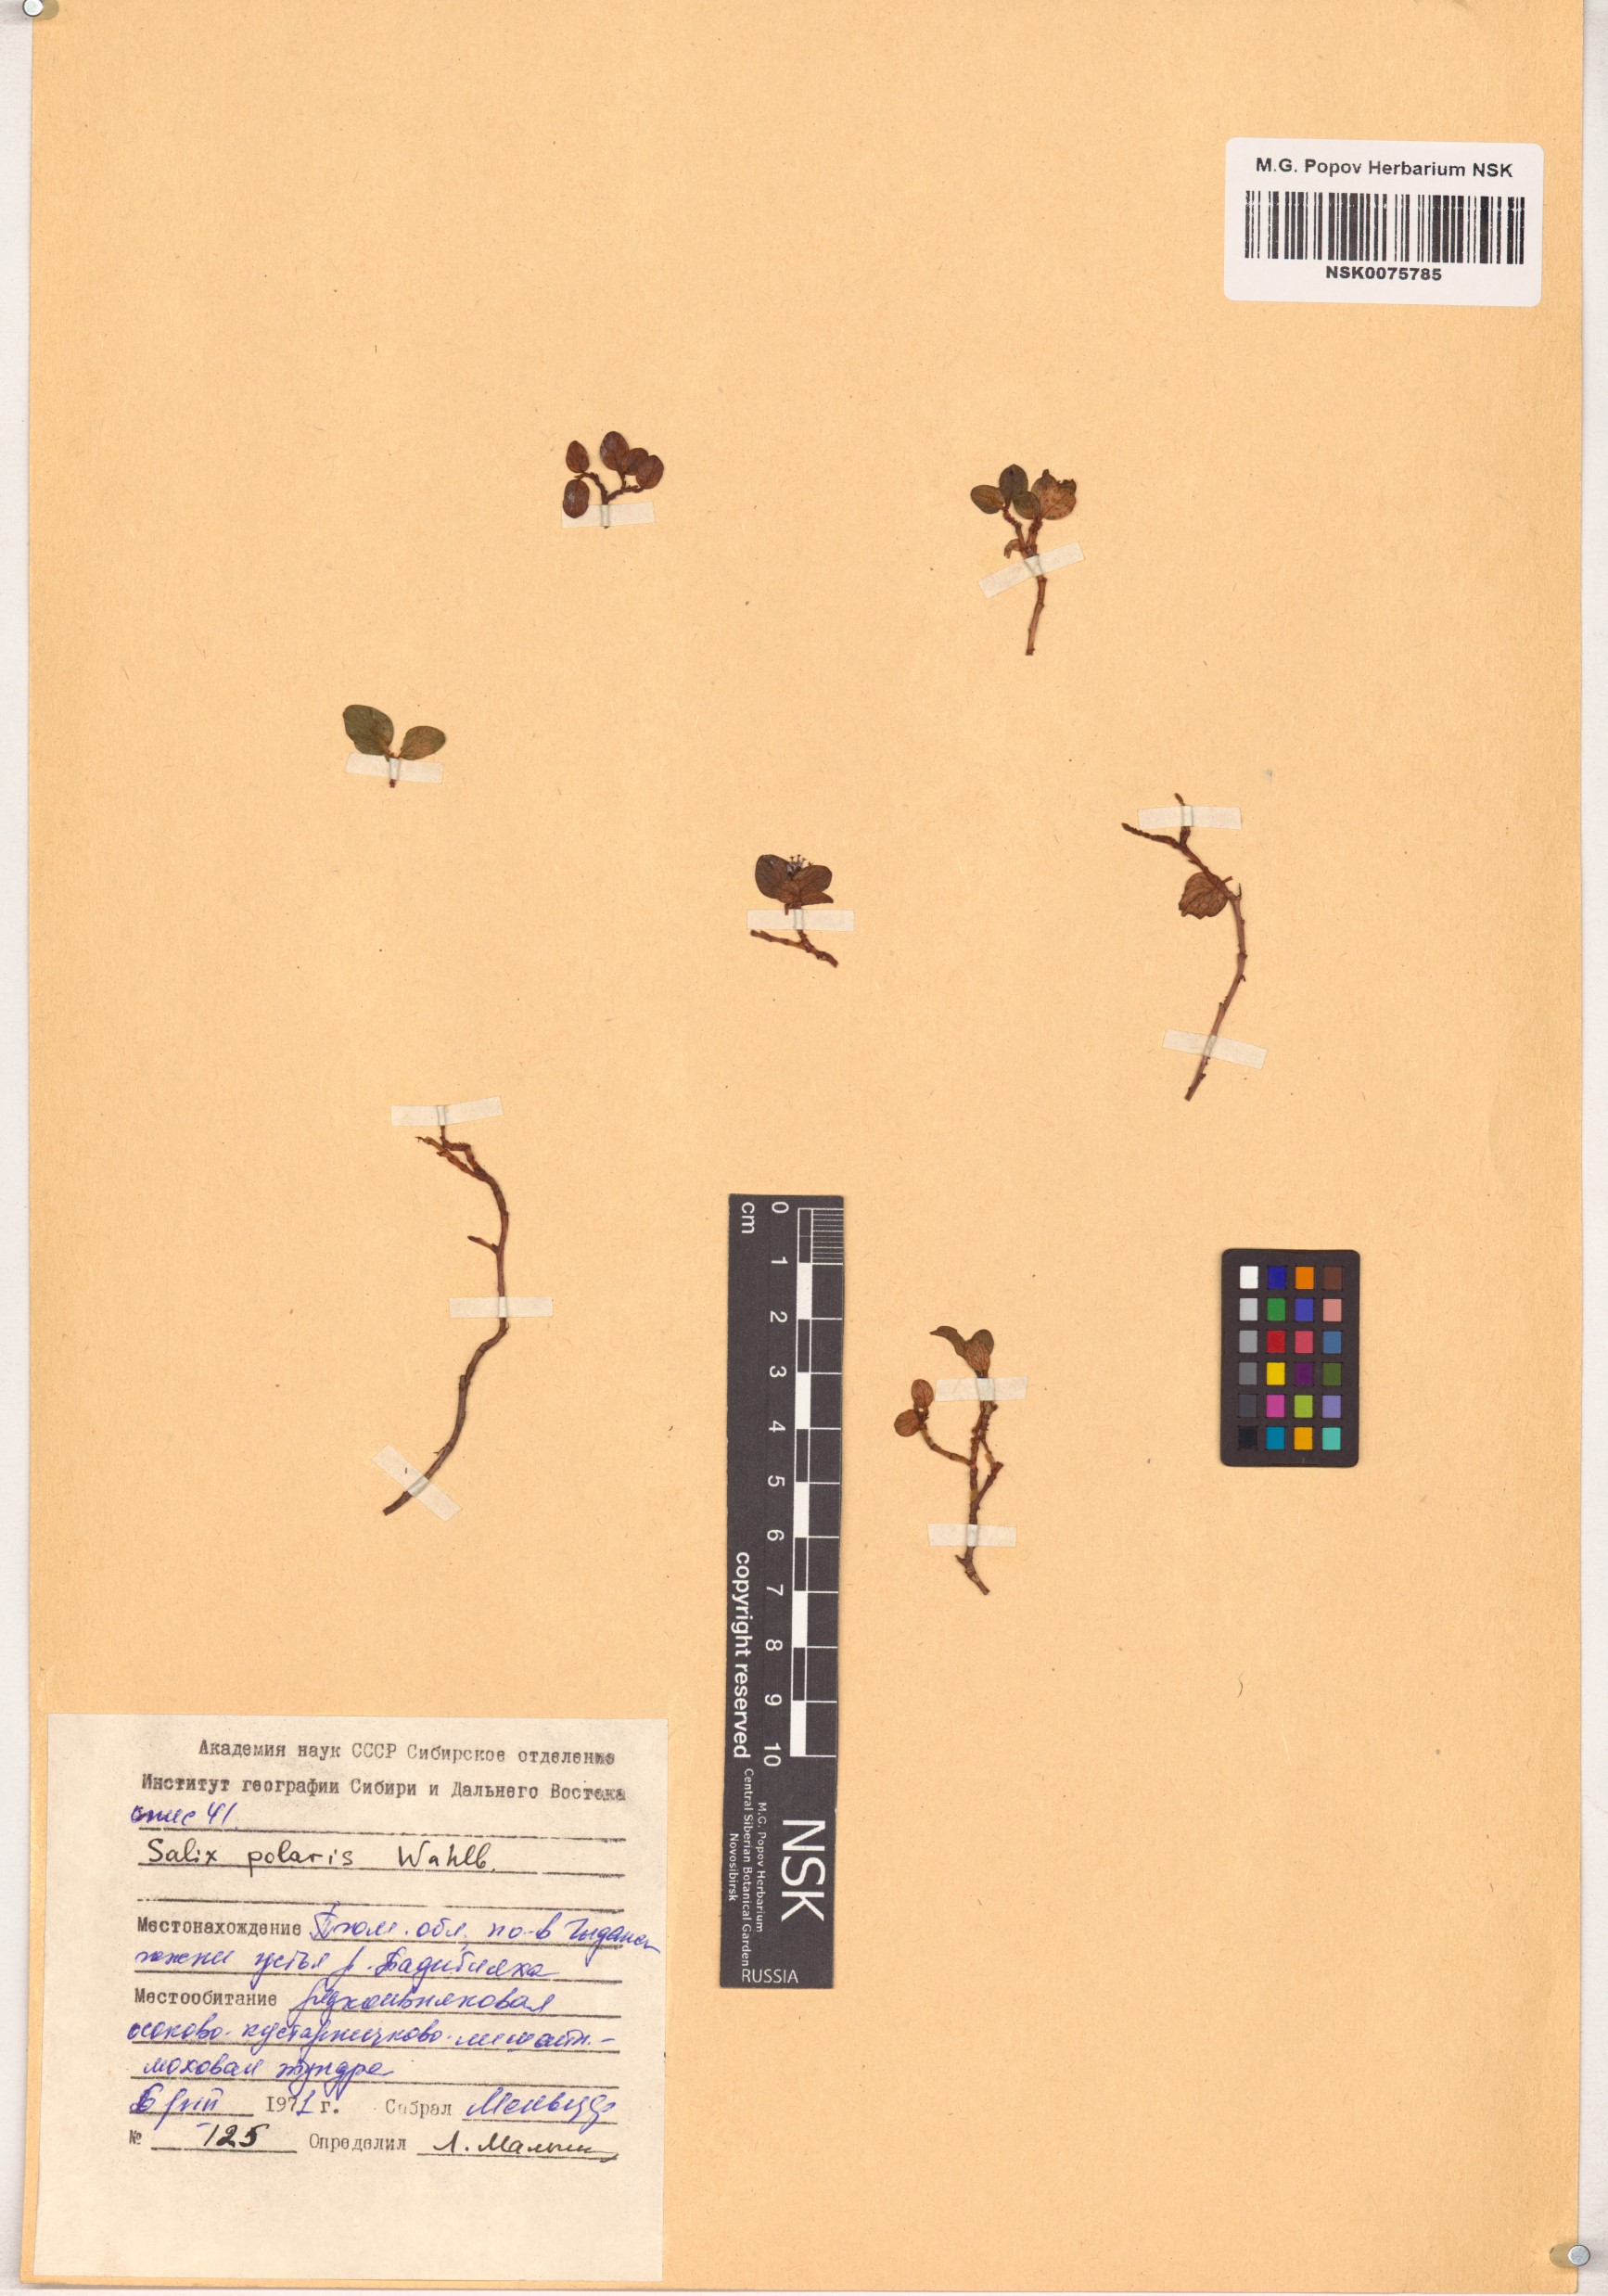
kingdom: Plantae
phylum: Tracheophyta
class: Magnoliopsida
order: Malpighiales
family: Salicaceae
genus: Salix
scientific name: Salix polaris
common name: Polar willow
